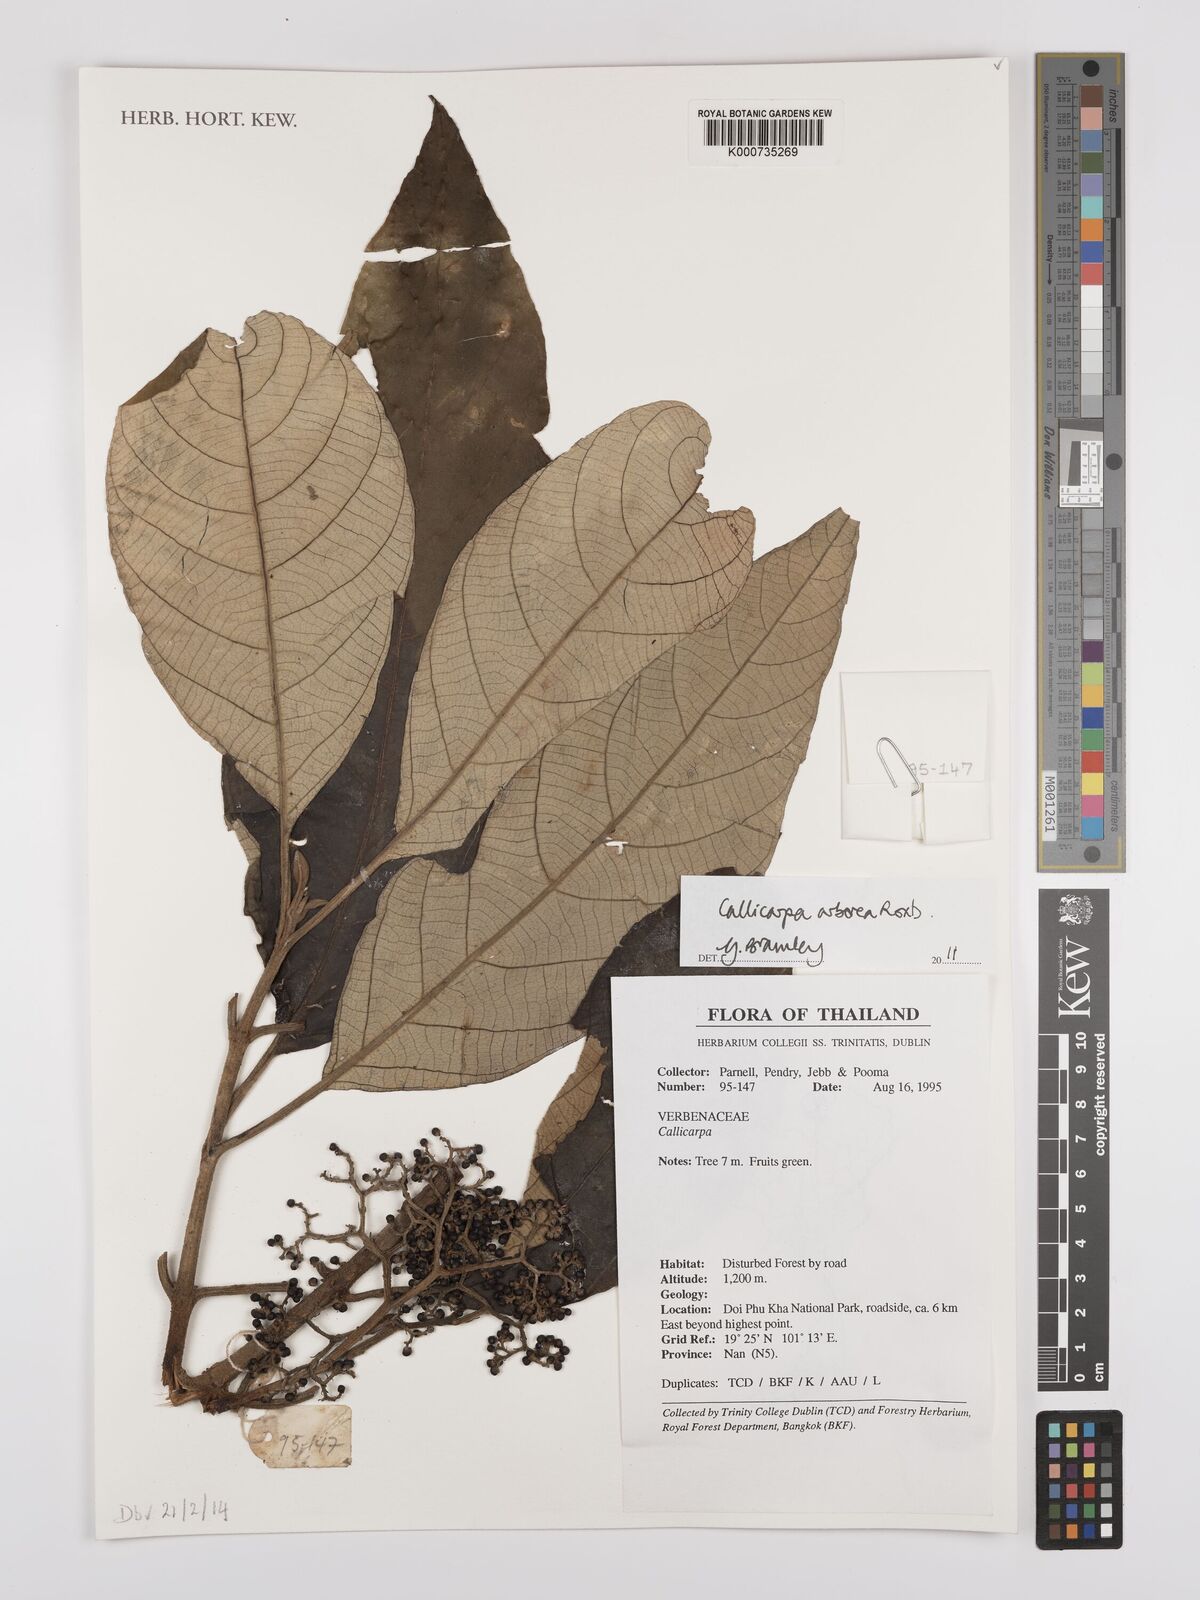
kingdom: Plantae
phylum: Tracheophyta
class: Magnoliopsida
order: Lamiales
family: Lamiaceae
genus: Callicarpa
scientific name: Callicarpa arborea
